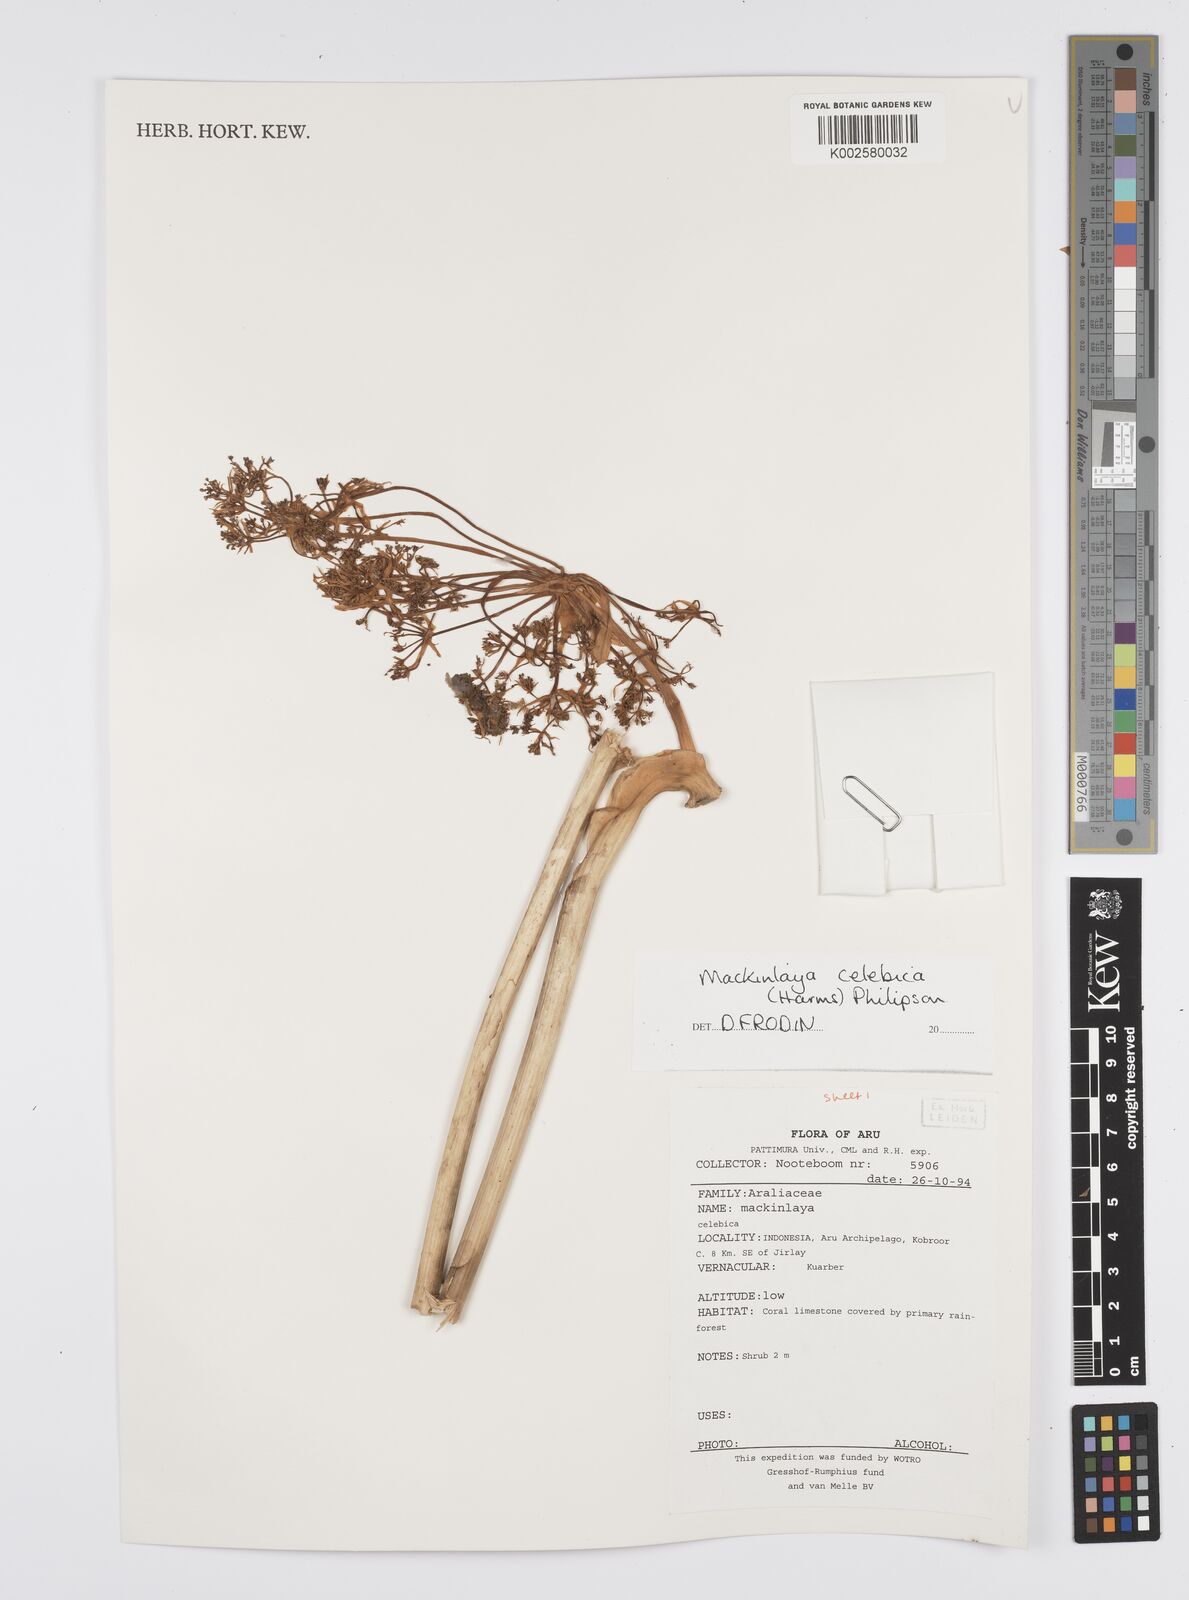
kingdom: Plantae
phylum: Tracheophyta
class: Magnoliopsida
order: Apiales
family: Apiaceae
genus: Mackinlaya
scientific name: Mackinlaya celebica
